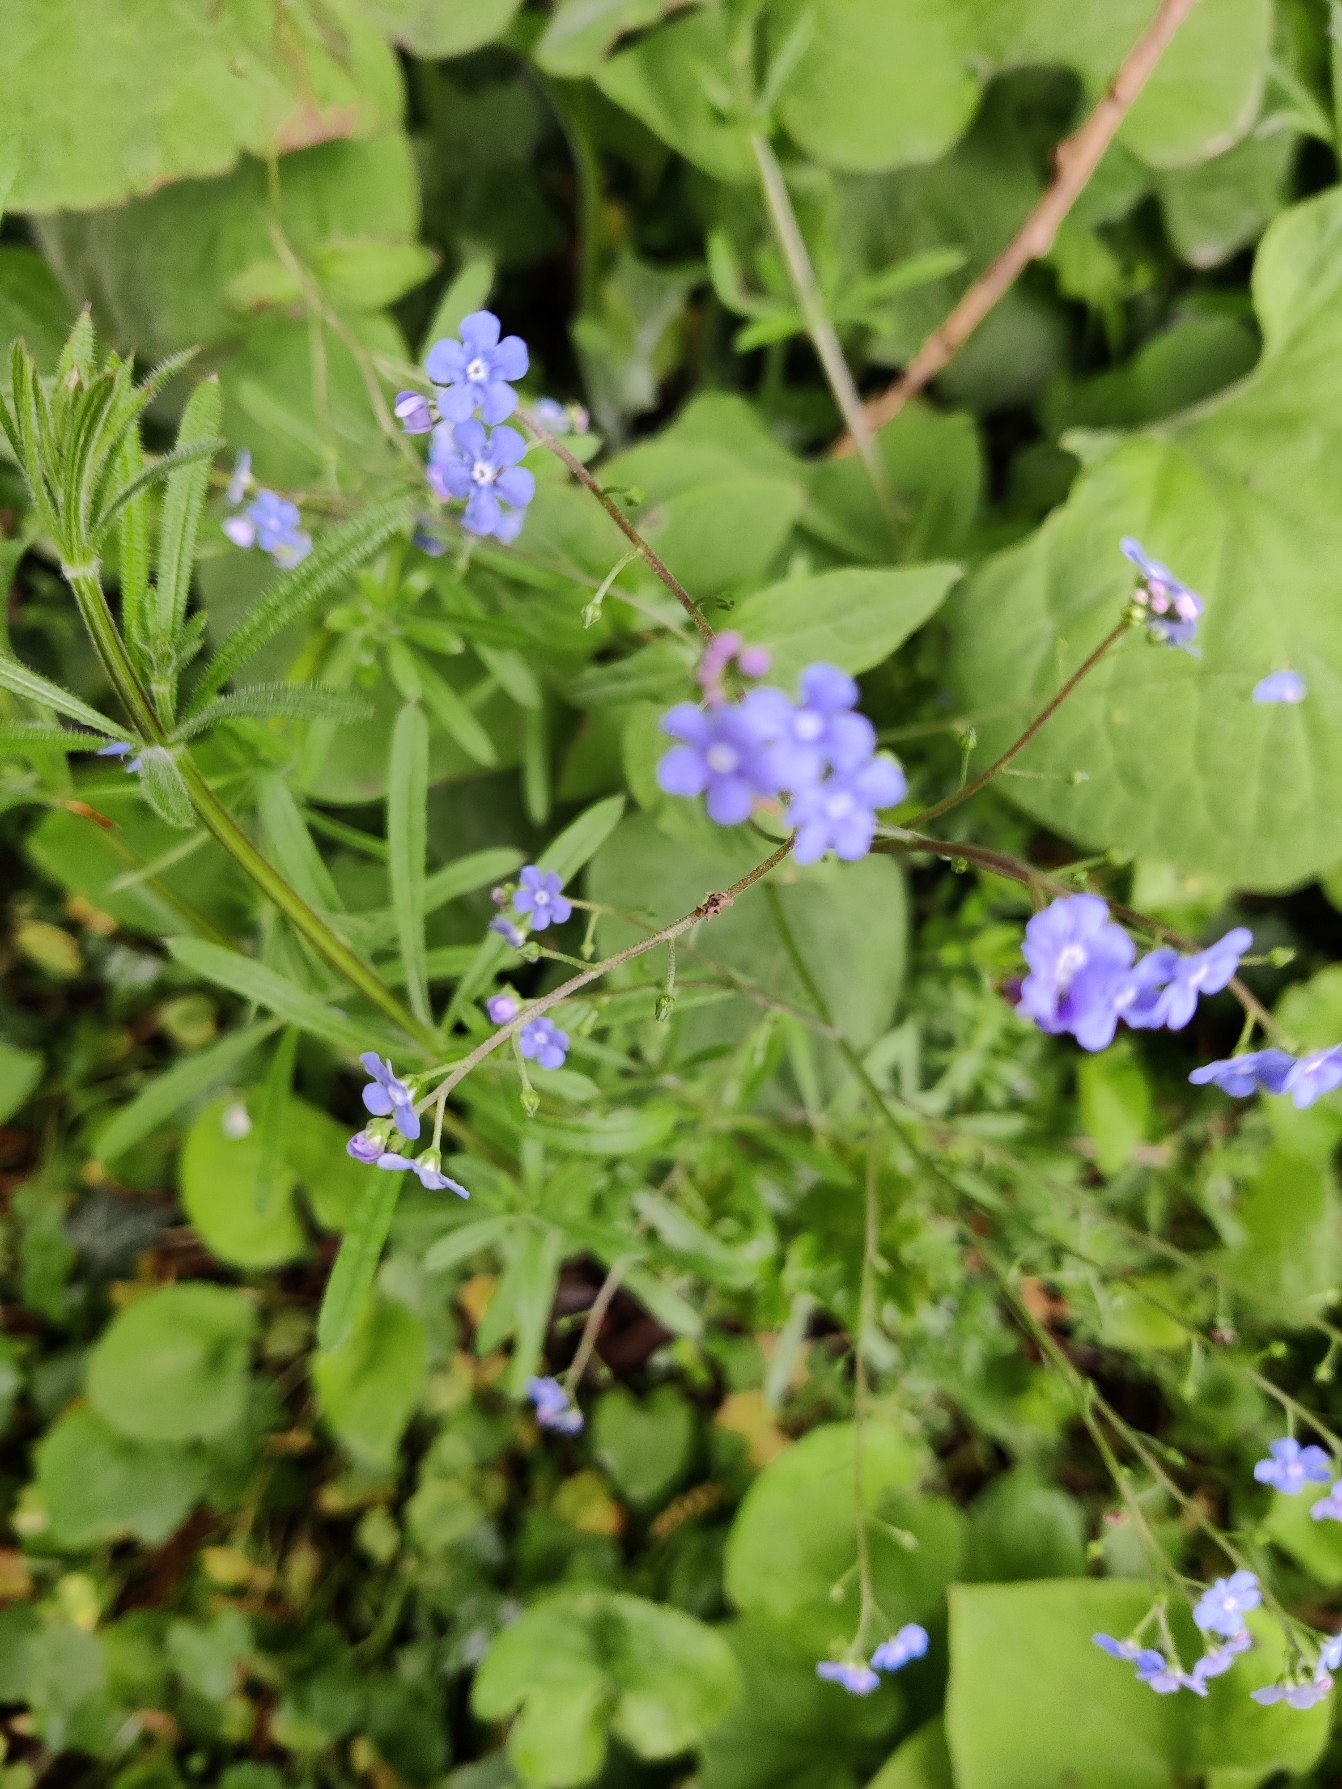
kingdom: Plantae
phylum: Tracheophyta
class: Magnoliopsida
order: Boraginales
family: Boraginaceae
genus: Brunnera
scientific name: Brunnera macrophylla
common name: Kærmindesøster
